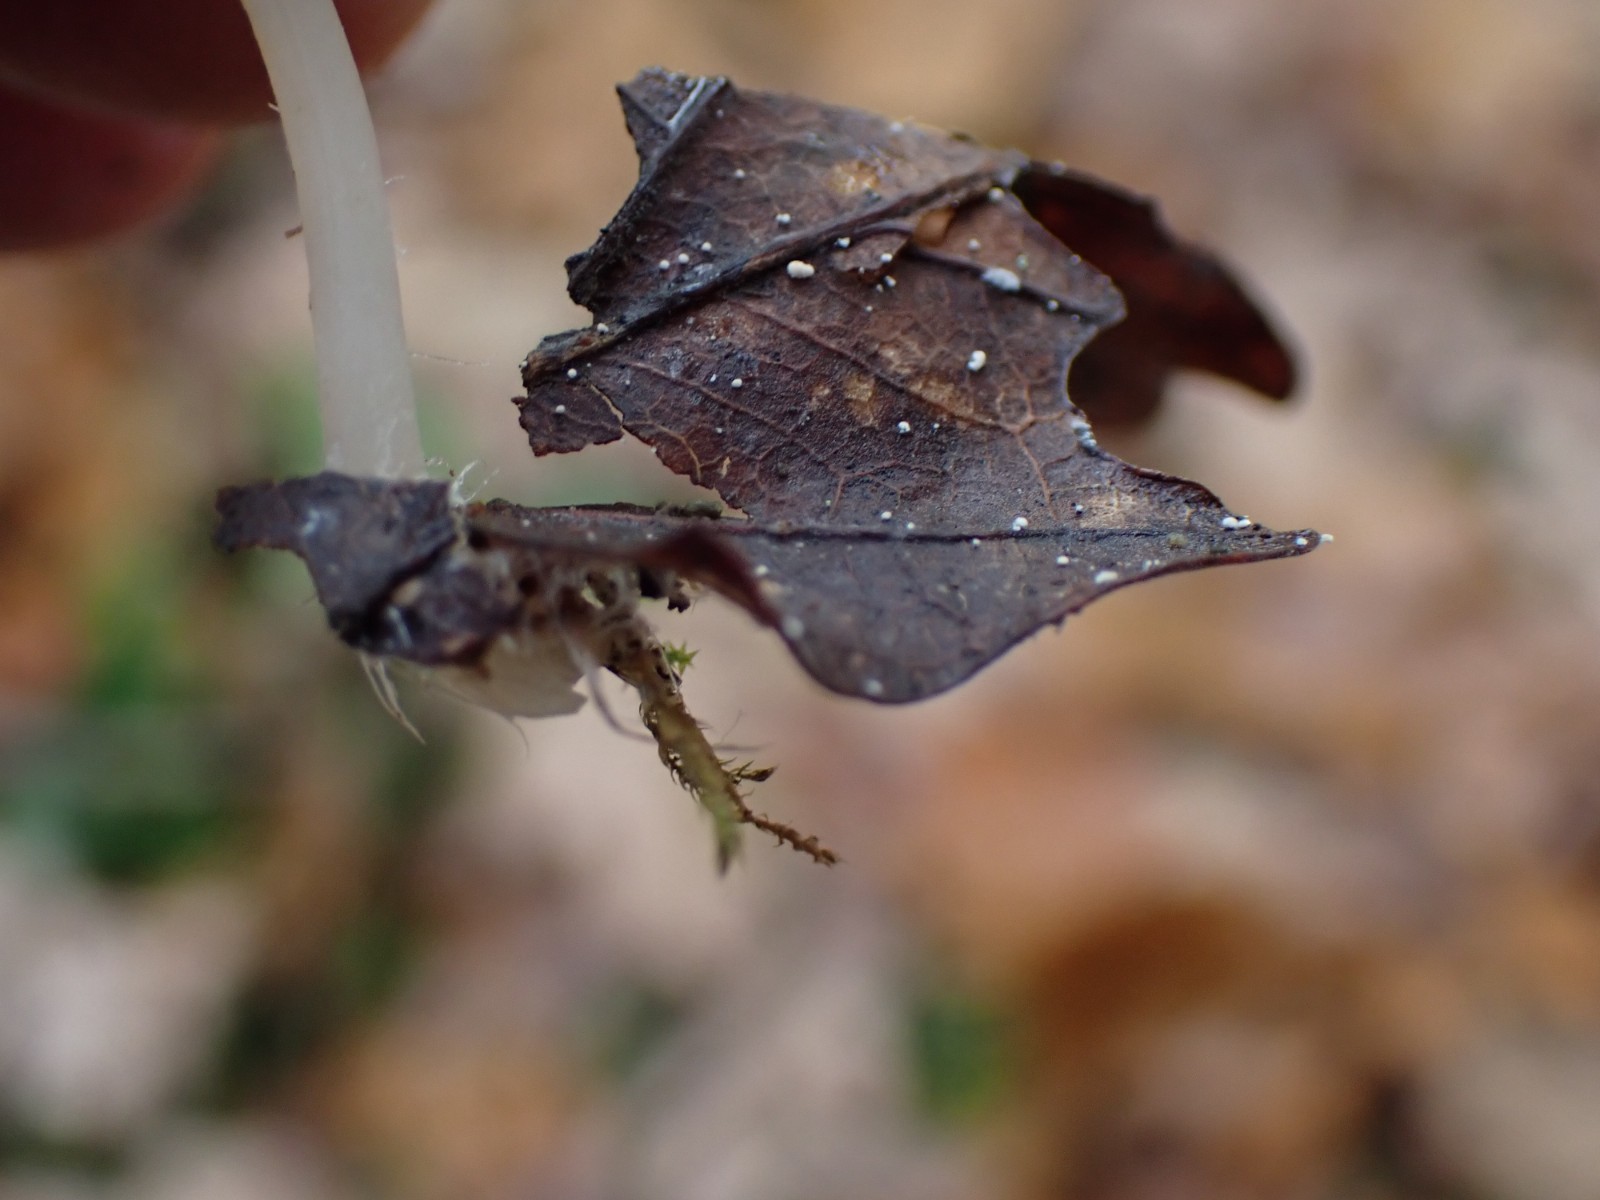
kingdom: Fungi
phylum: Basidiomycota
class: Agaricomycetes
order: Agaricales
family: Mycenaceae
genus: Mycena
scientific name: Mycena
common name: huesvamp
